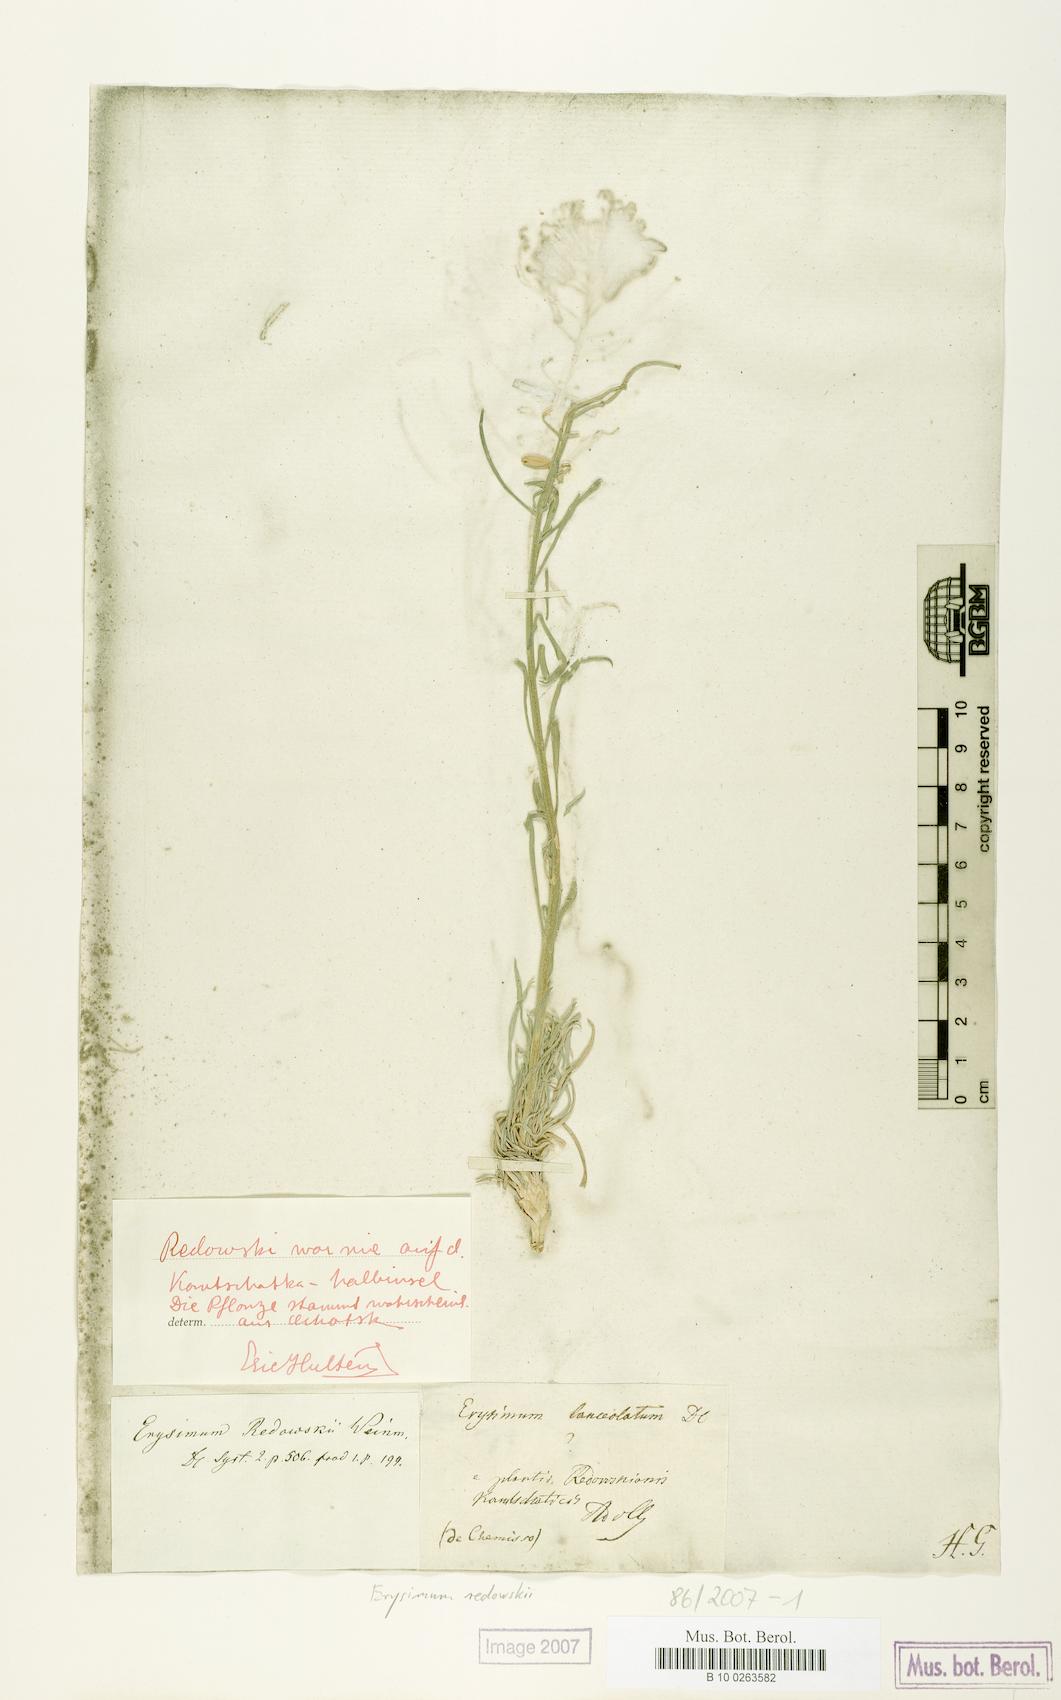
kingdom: Plantae
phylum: Tracheophyta
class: Magnoliopsida
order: Brassicales
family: Brassicaceae
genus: Erysimum
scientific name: Erysimum redowskii
